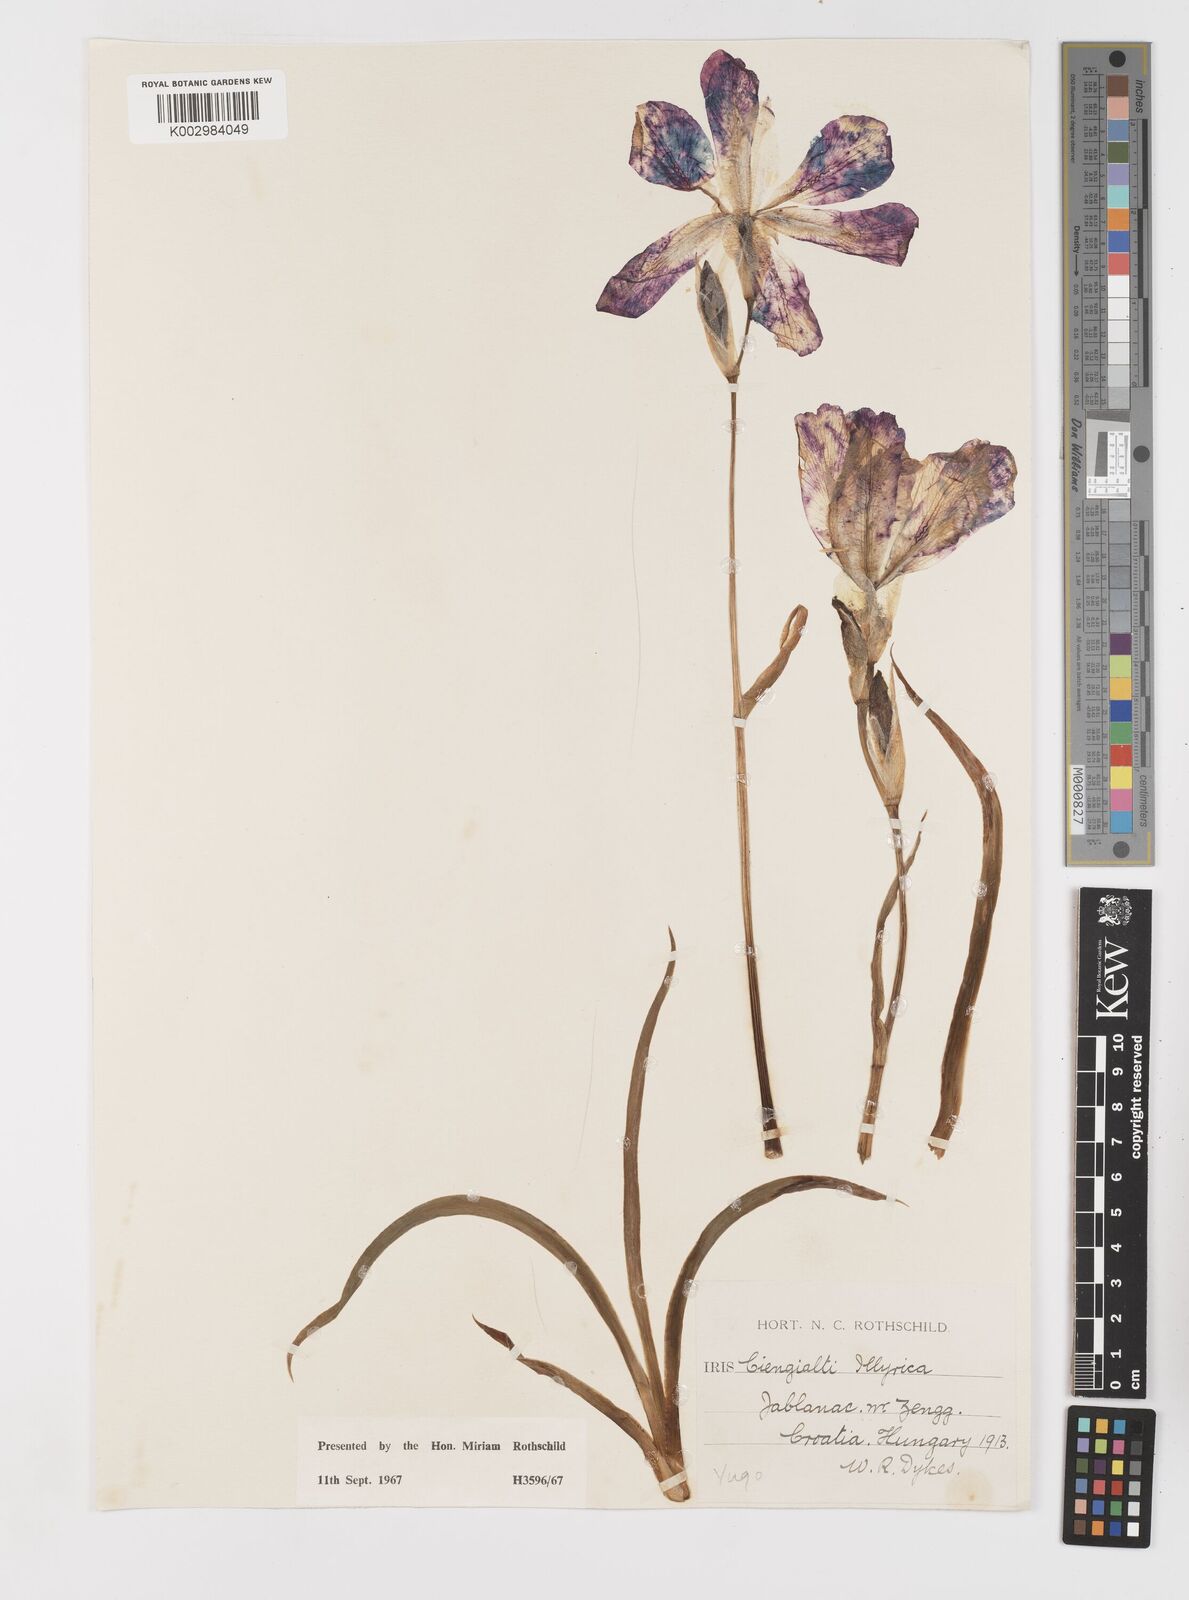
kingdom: Plantae
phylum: Tracheophyta
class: Liliopsida
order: Asparagales
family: Iridaceae
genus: Iris
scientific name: Iris pallida
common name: Sweet iris
